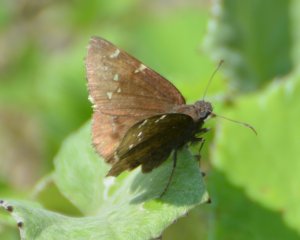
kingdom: Animalia
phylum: Arthropoda
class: Insecta
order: Lepidoptera
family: Hesperiidae
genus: Autochton
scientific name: Autochton
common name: Northern Cloudywing
